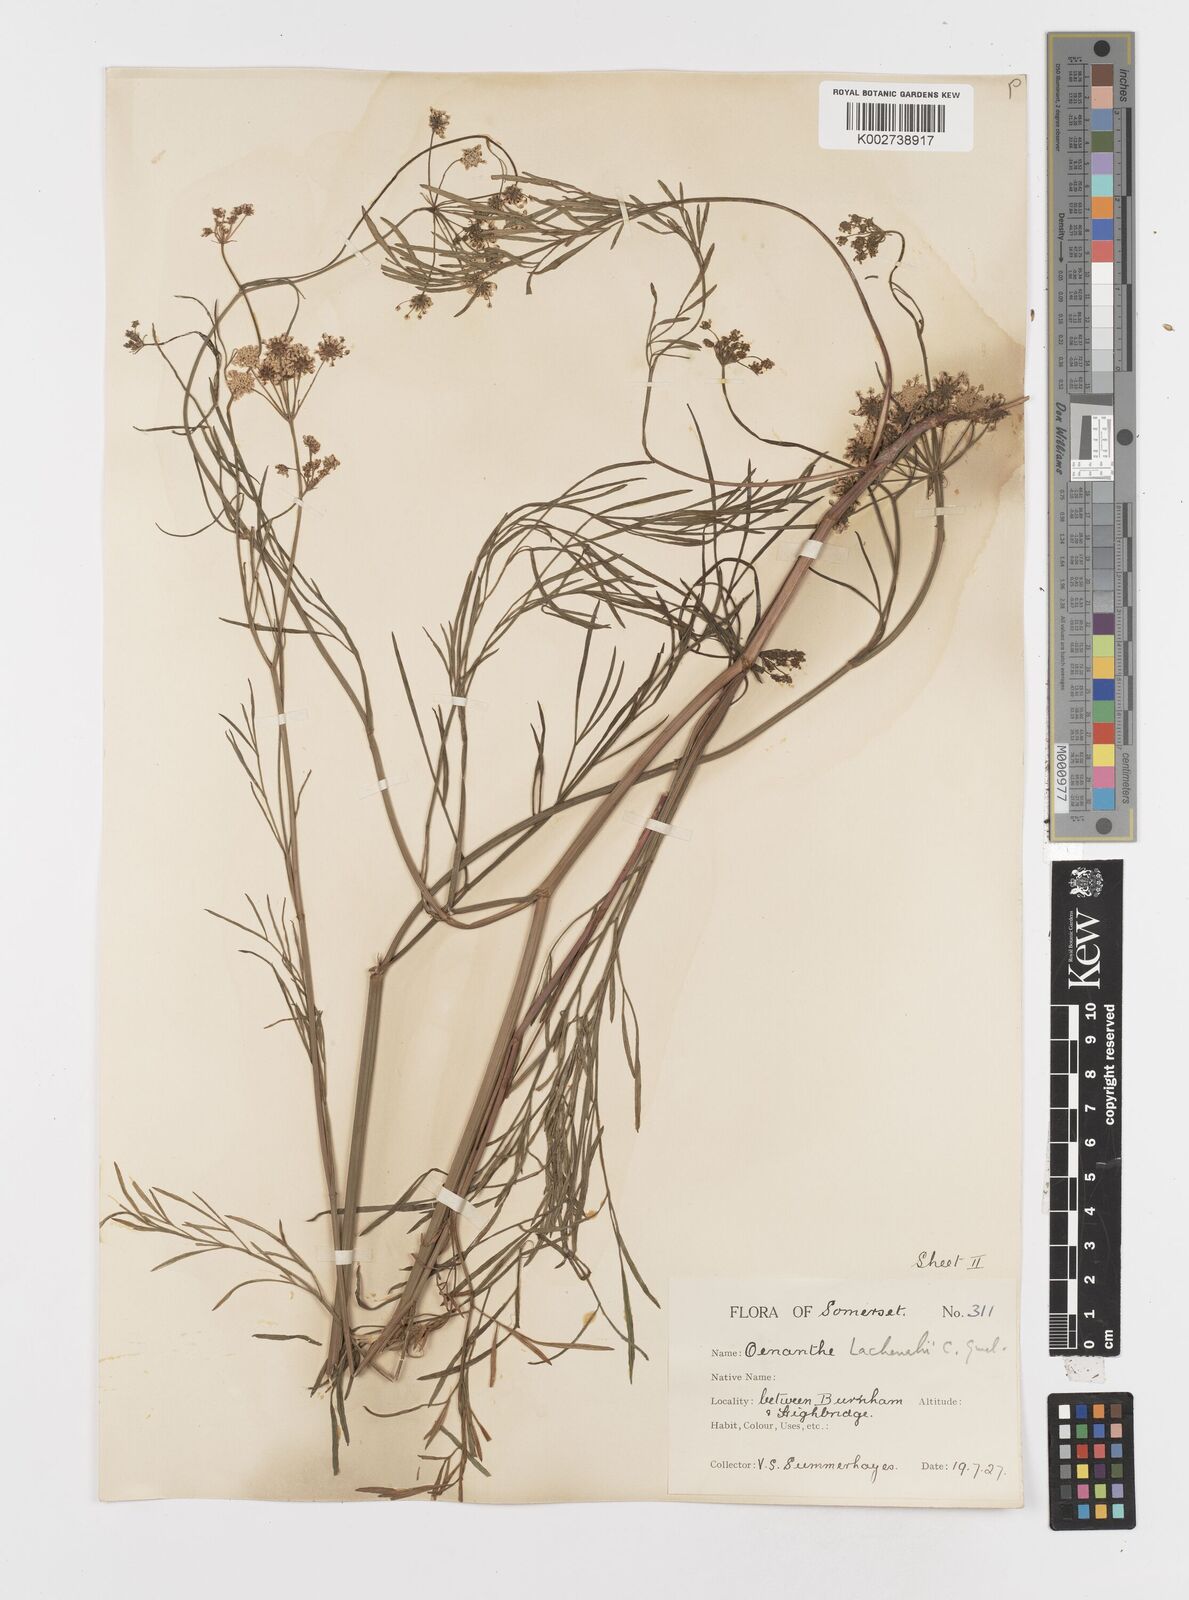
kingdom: Plantae
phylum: Tracheophyta
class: Magnoliopsida
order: Apiales
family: Apiaceae
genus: Oenanthe
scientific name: Oenanthe lachenalii
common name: Parsley water-dropwort
